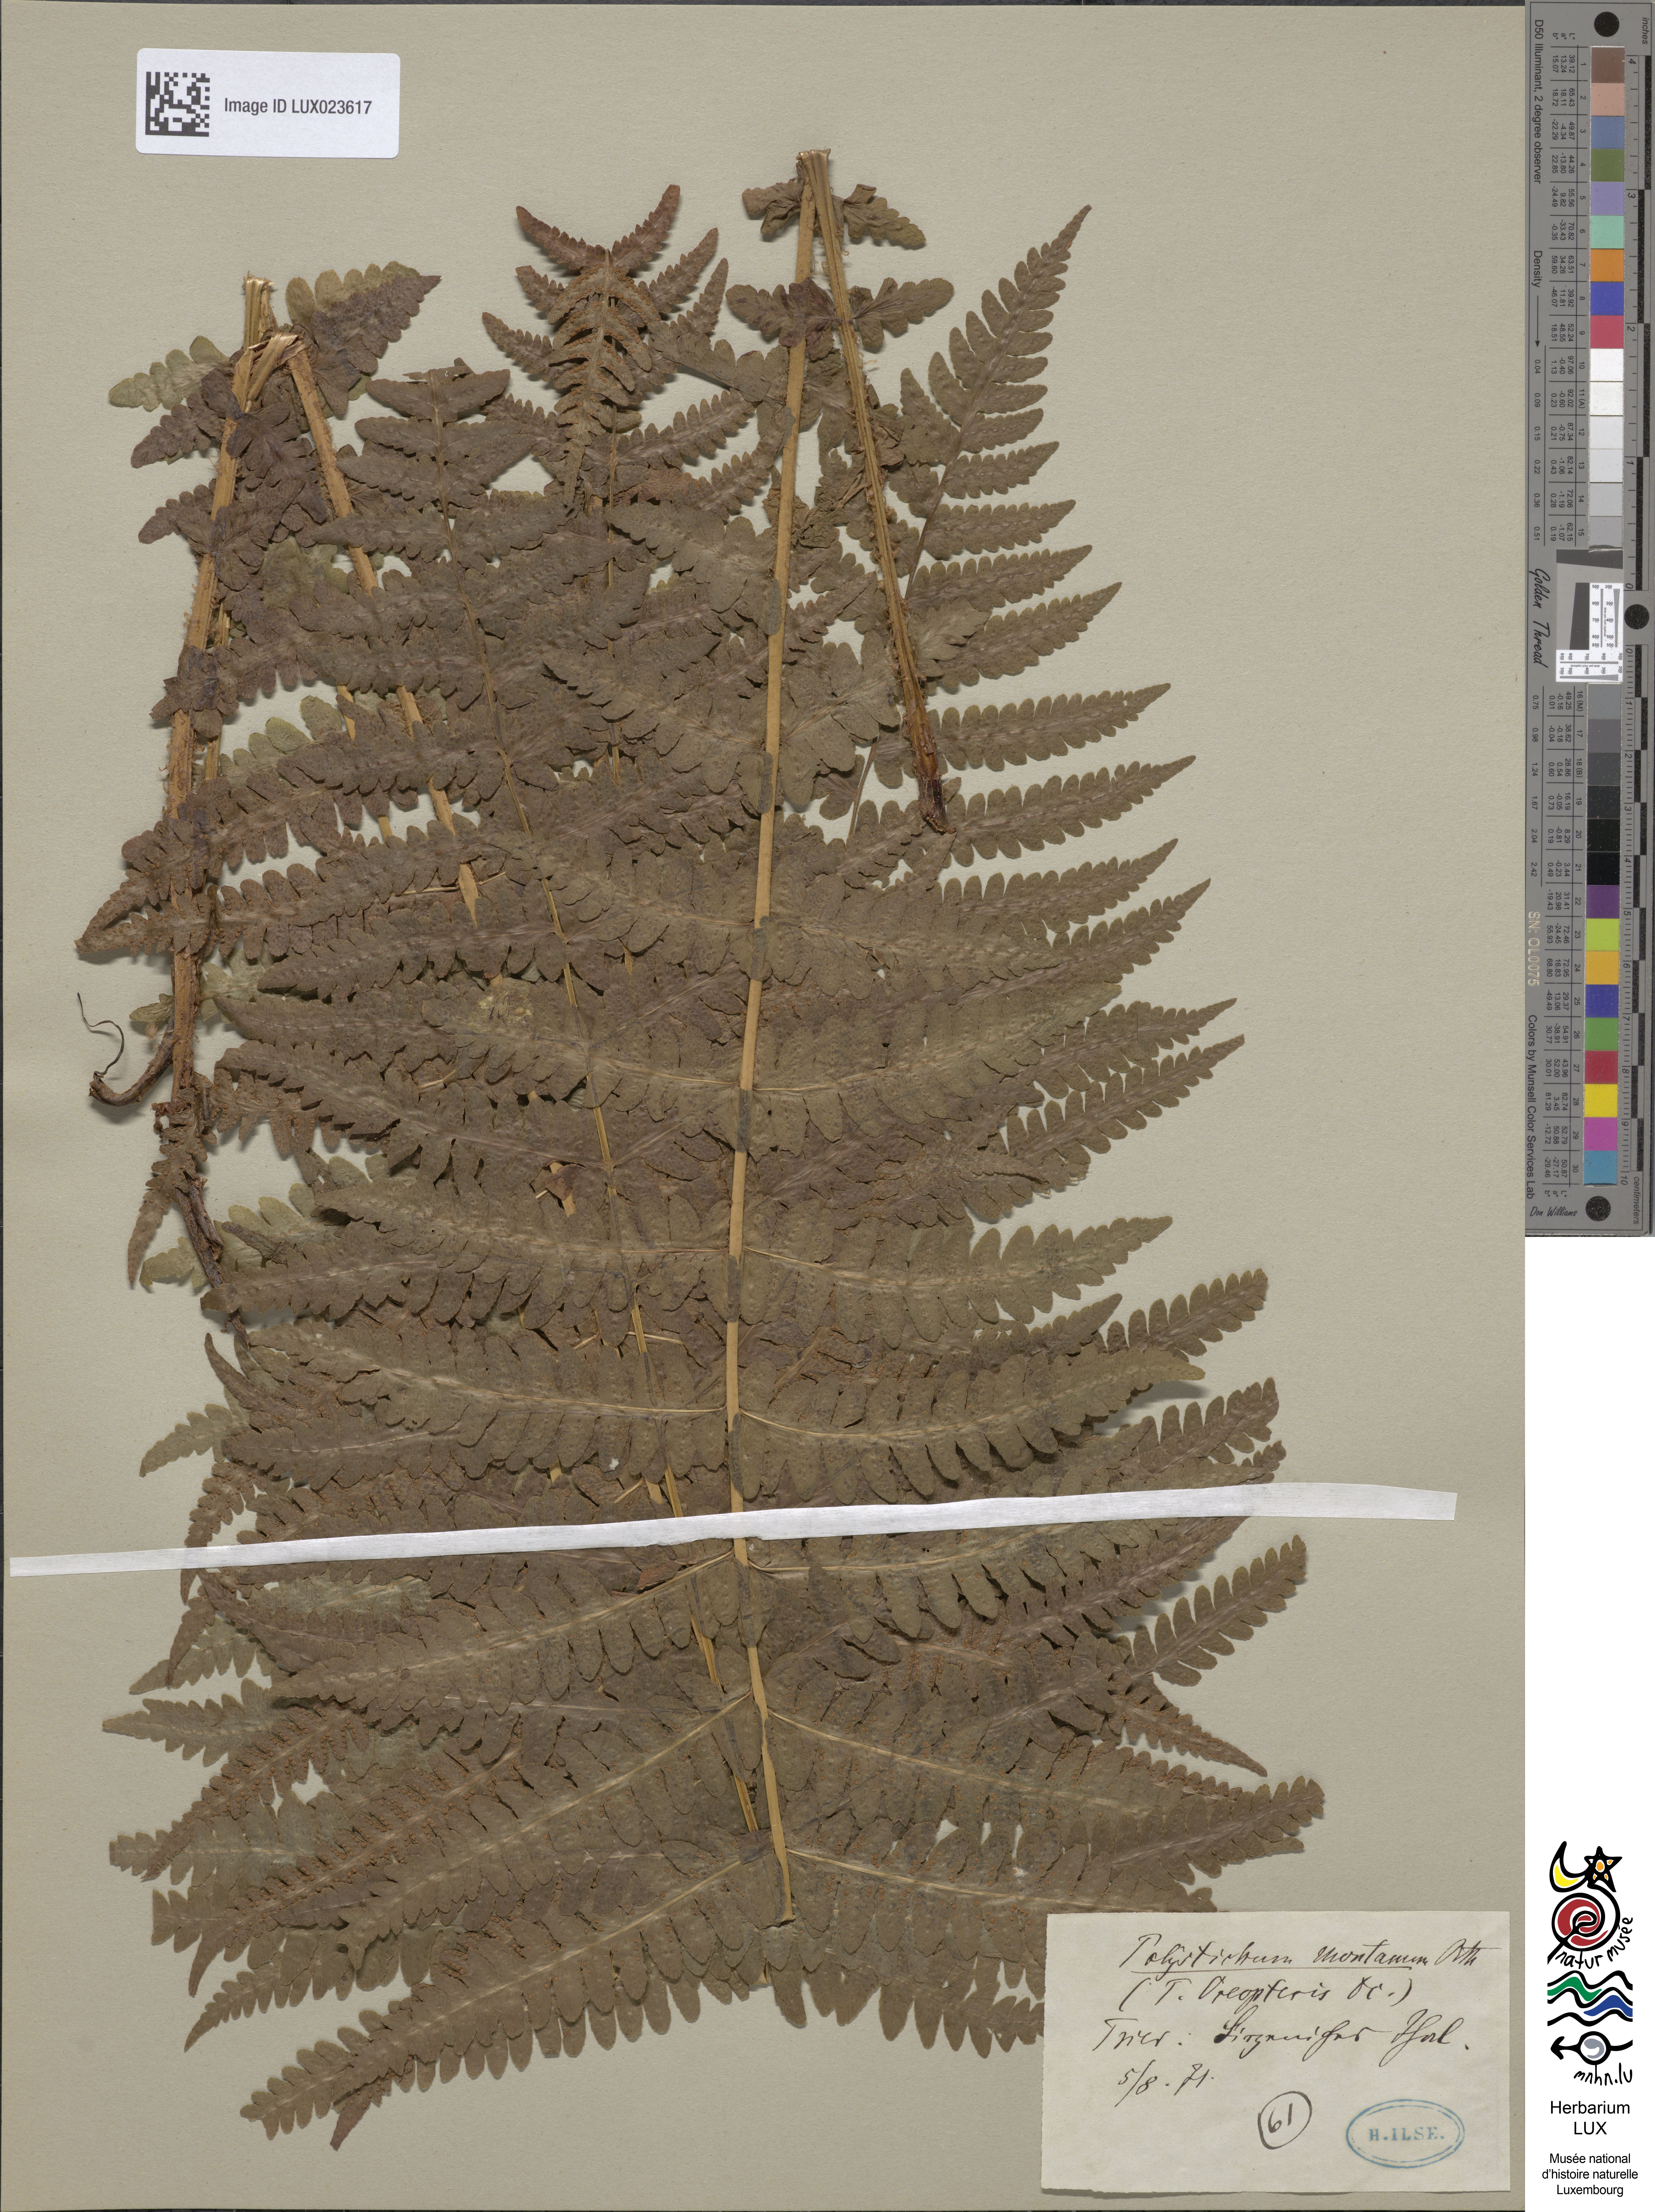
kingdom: Plantae
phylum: Tracheophyta
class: Polypodiopsida
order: Polypodiales
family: Thelypteridaceae
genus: Oreopteris
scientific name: Oreopteris limbosperma
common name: Lemon-scented fern
